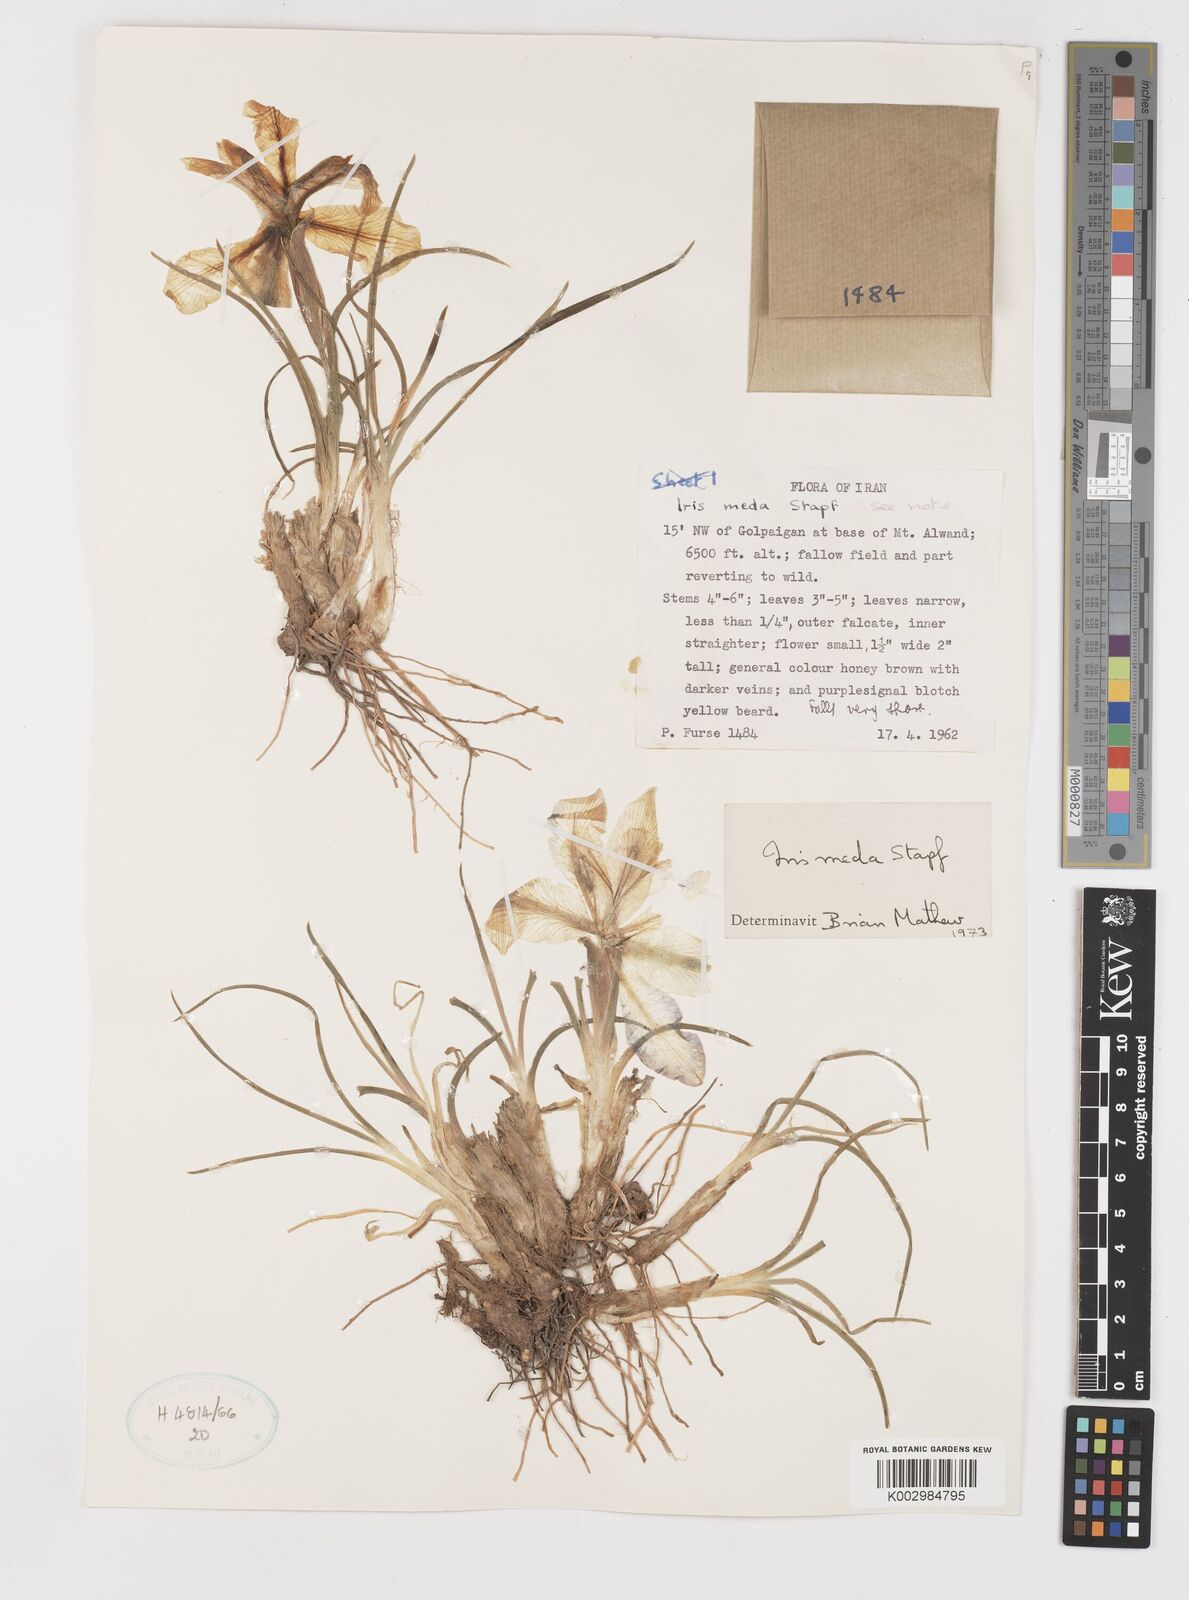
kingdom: Plantae
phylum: Tracheophyta
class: Liliopsida
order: Asparagales
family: Iridaceae
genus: Iris
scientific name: Iris meda
